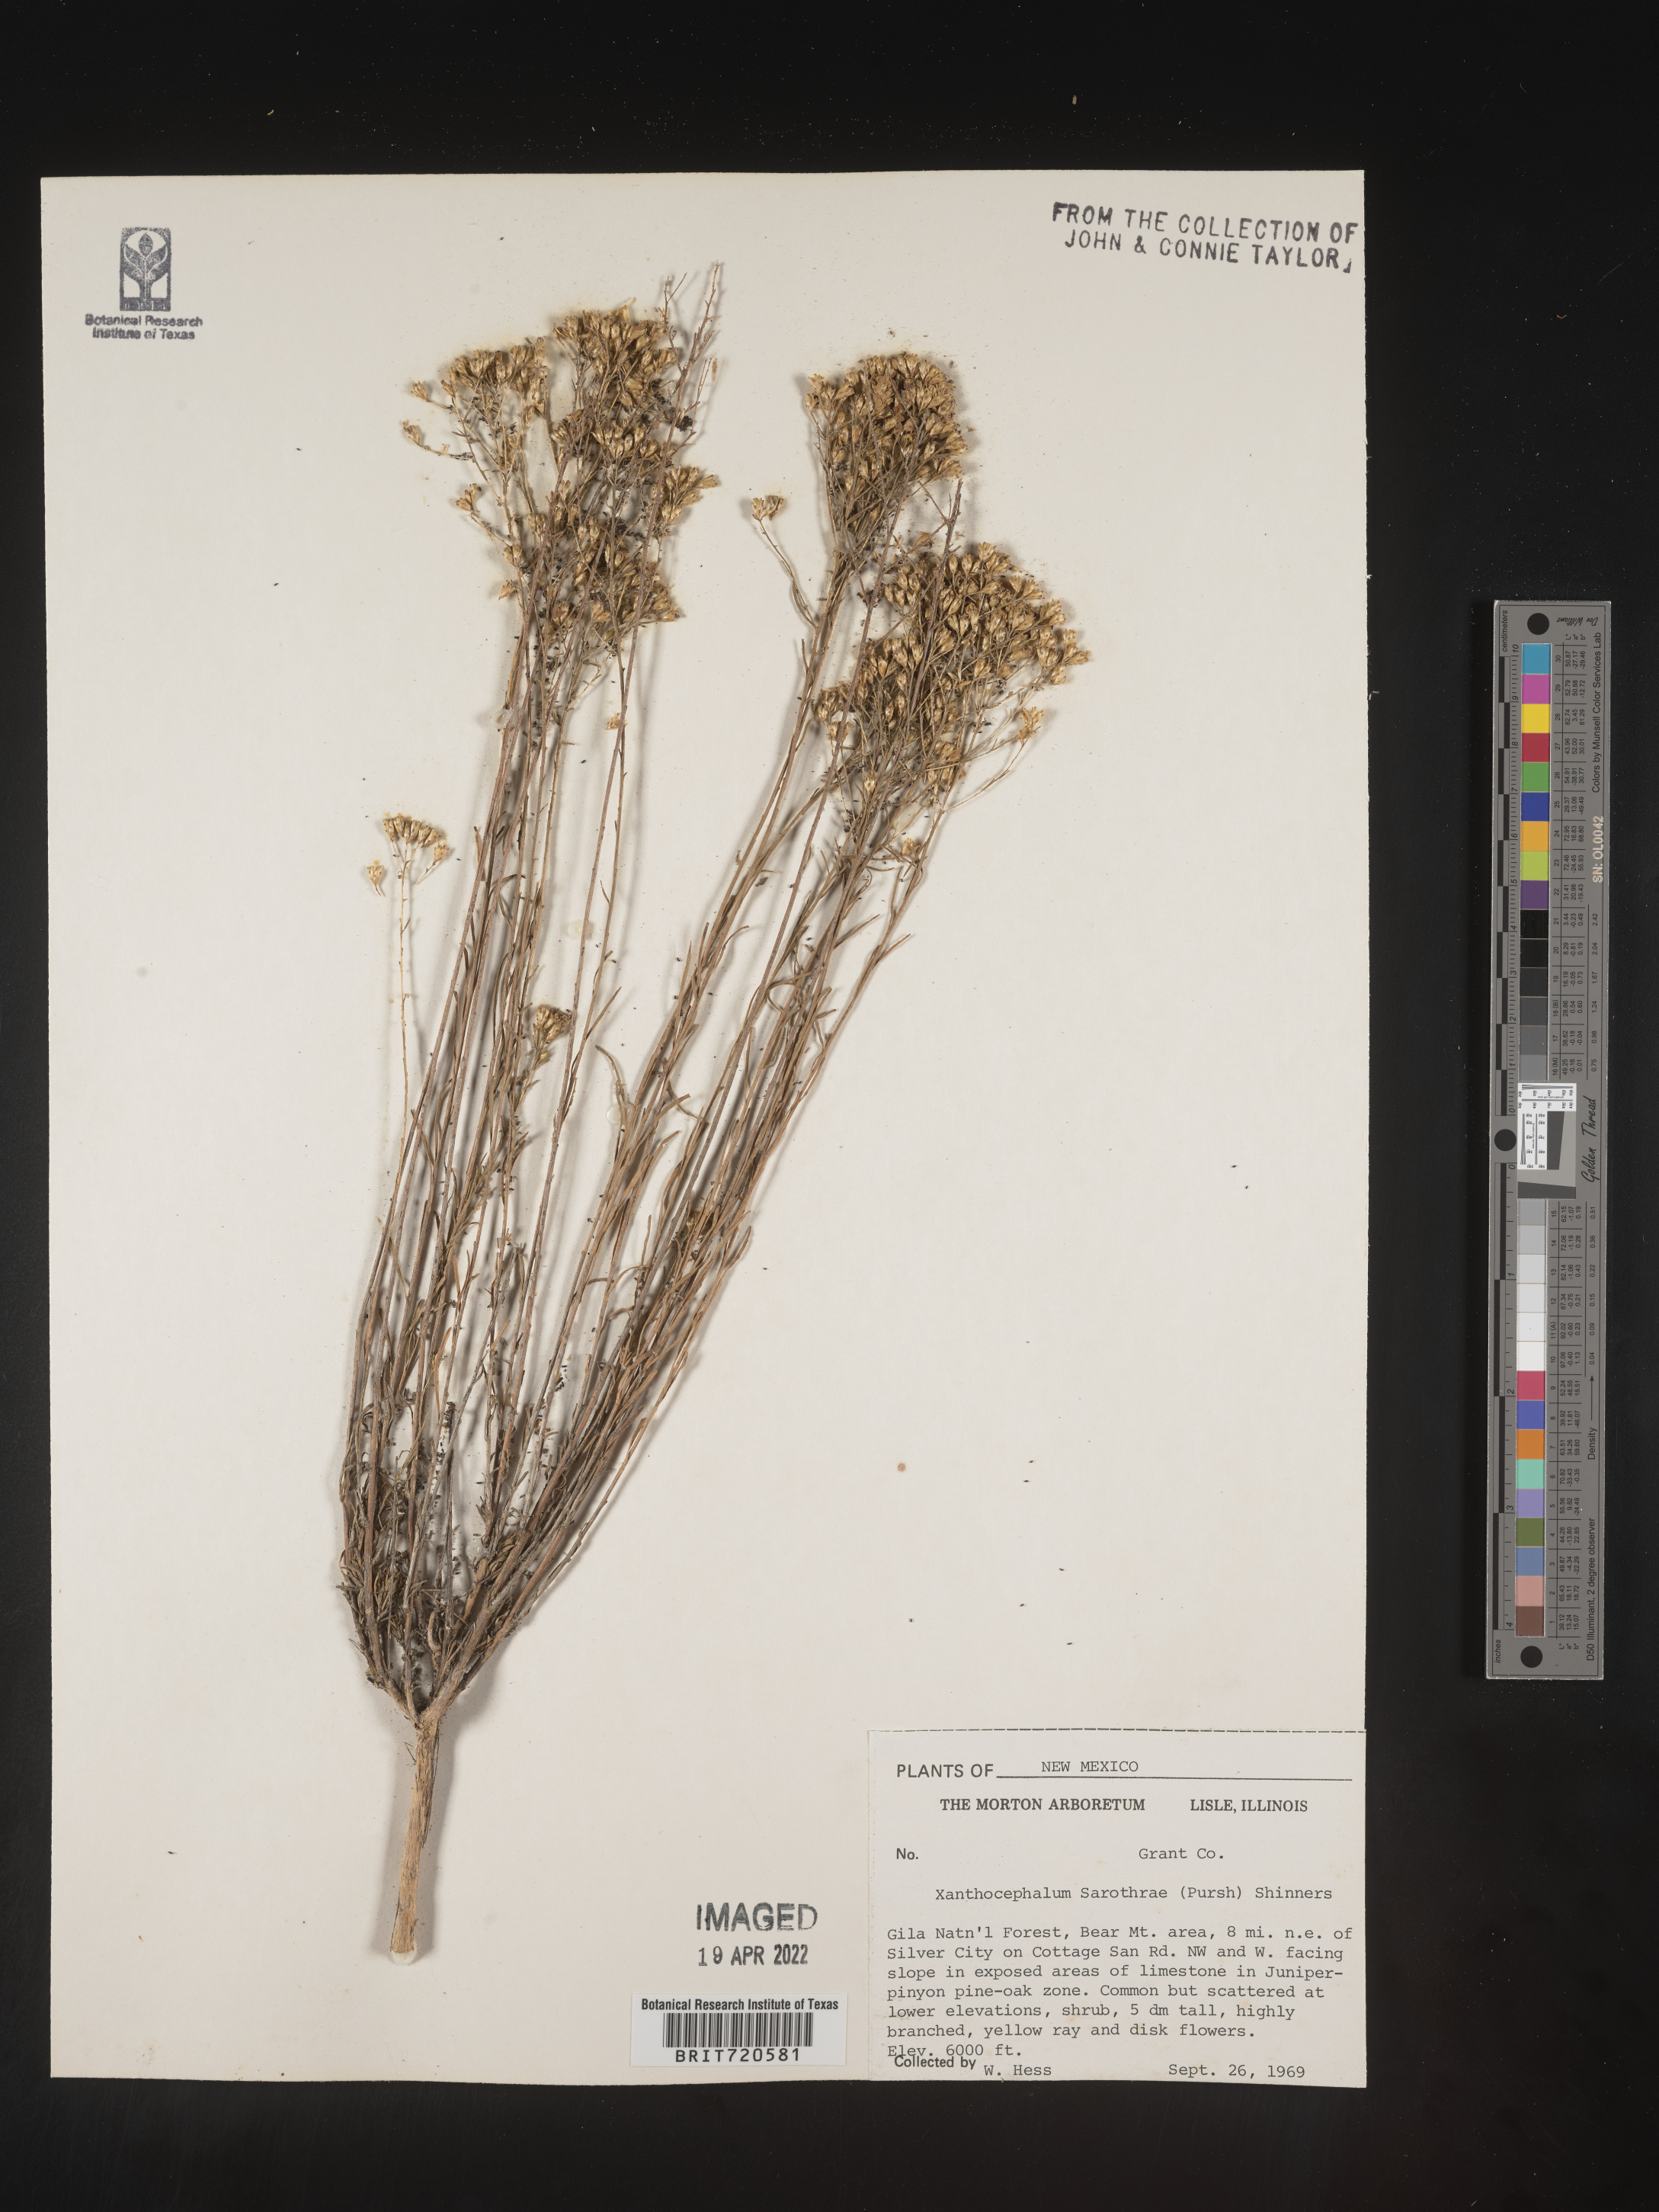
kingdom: Plantae
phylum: Tracheophyta
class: Magnoliopsida
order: Asterales
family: Asteraceae
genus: Gutierrezia
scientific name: Gutierrezia sarothrae
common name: Broom snakeweed
